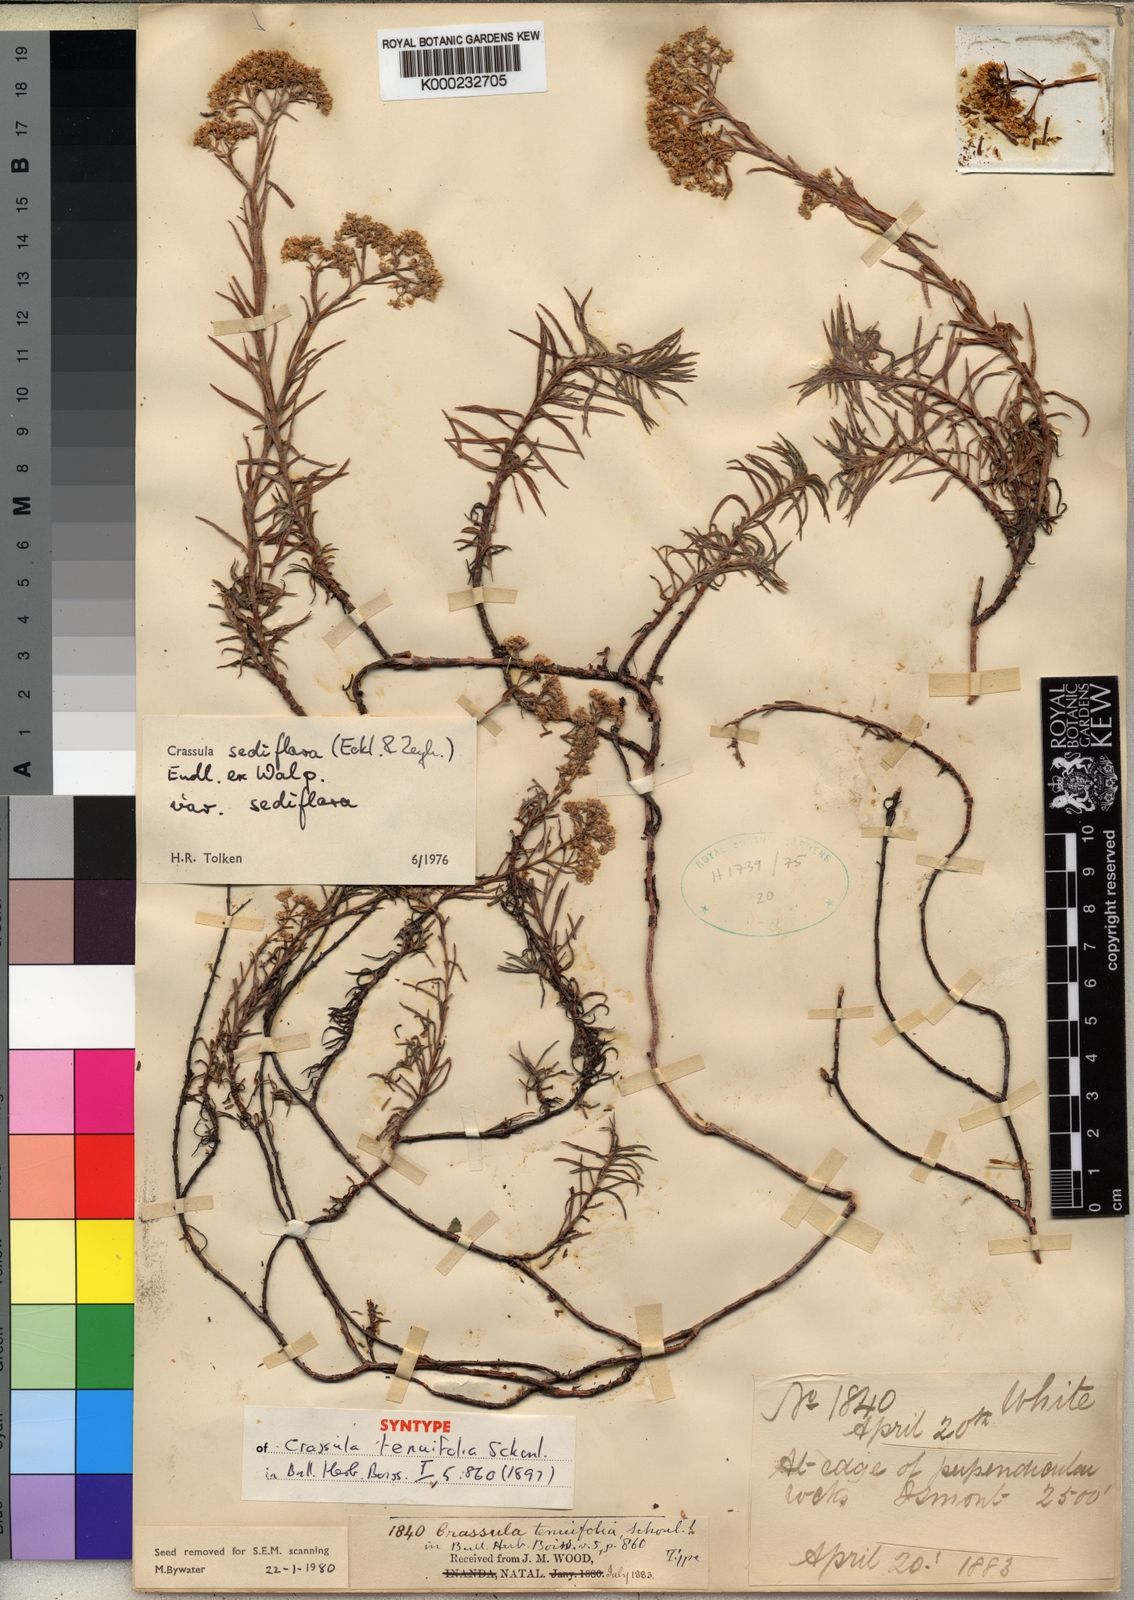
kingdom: Plantae
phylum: Tracheophyta
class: Magnoliopsida
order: Saxifragales
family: Crassulaceae
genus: Crassula
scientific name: Crassula
